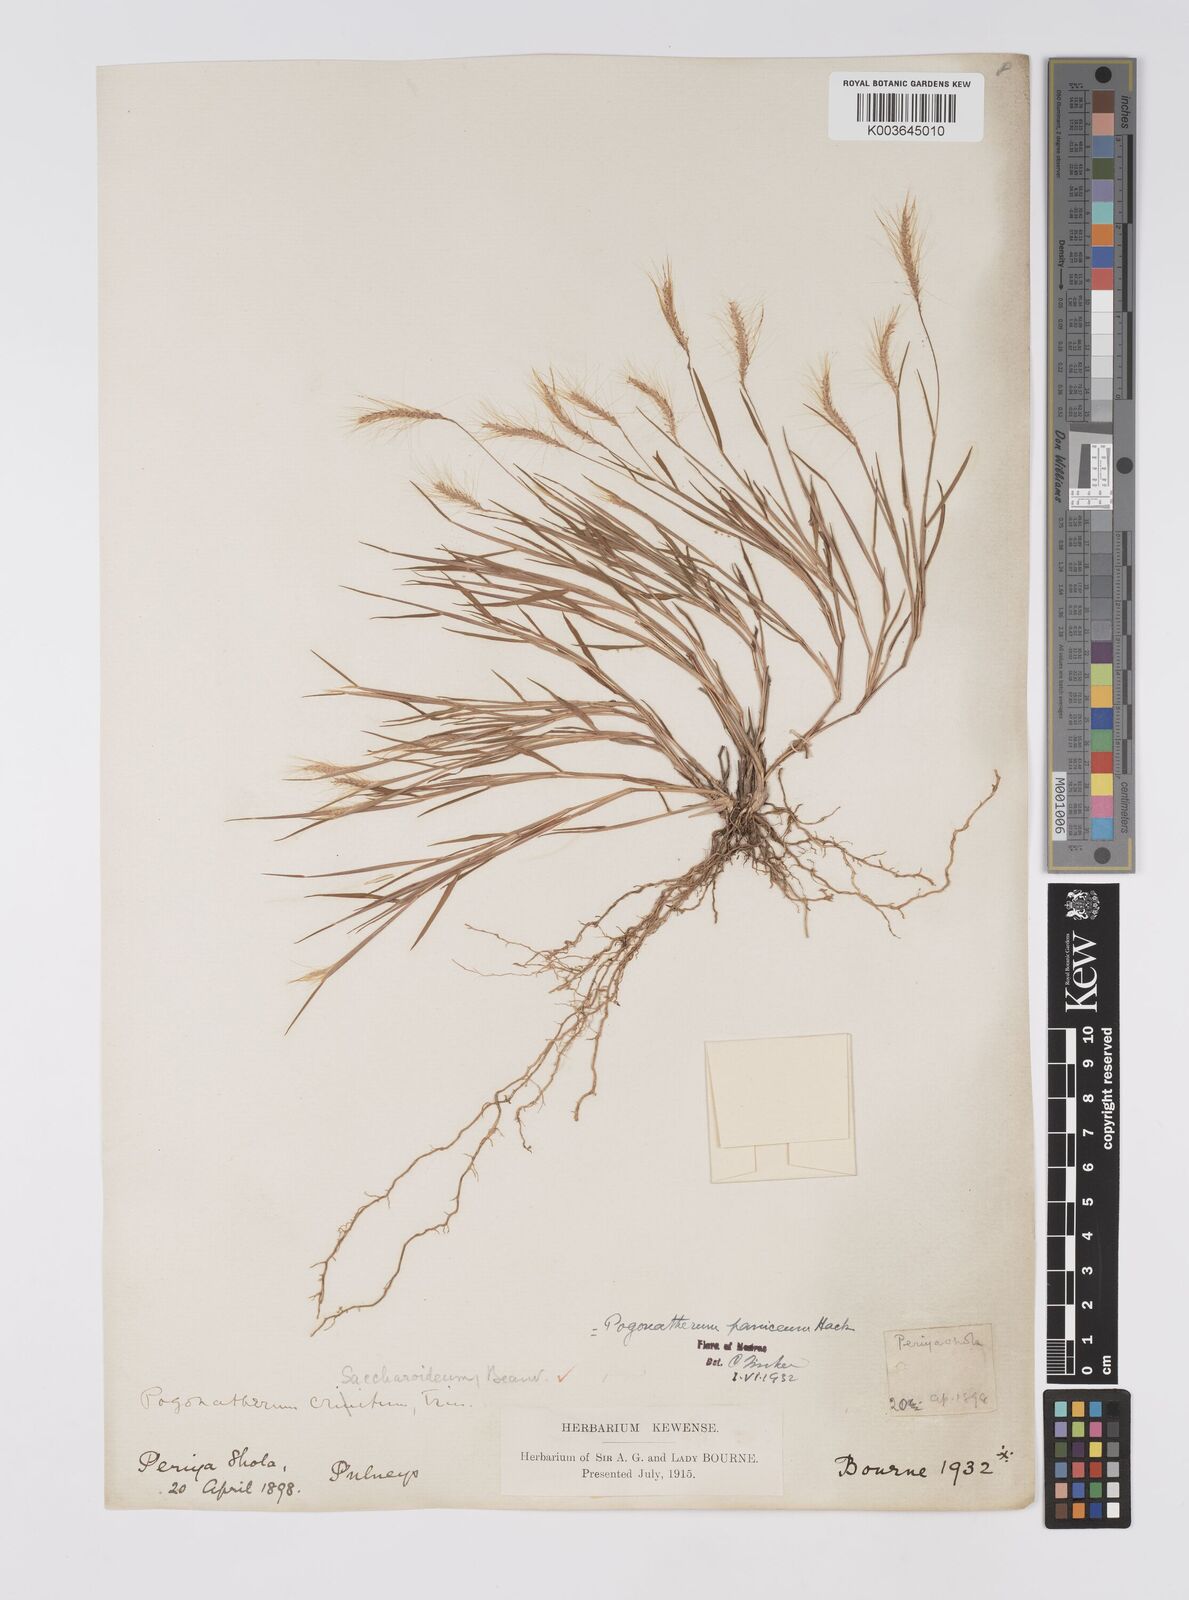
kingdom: Plantae
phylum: Tracheophyta
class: Liliopsida
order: Poales
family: Poaceae
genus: Pogonatherum
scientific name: Pogonatherum crinitum
